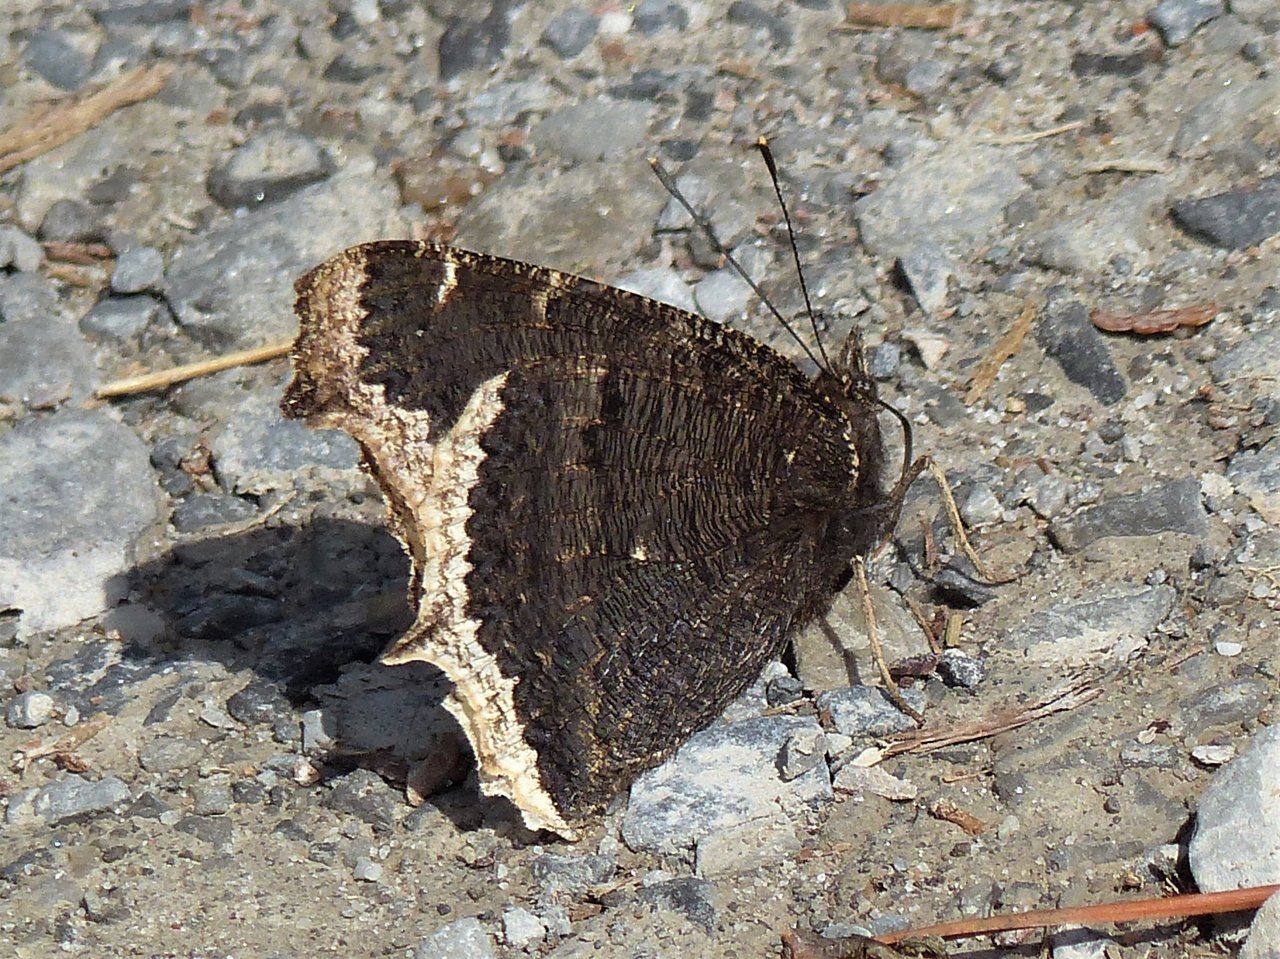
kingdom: Animalia
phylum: Arthropoda
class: Insecta
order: Lepidoptera
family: Nymphalidae
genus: Nymphalis
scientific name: Nymphalis antiopa
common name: Mourning Cloak
